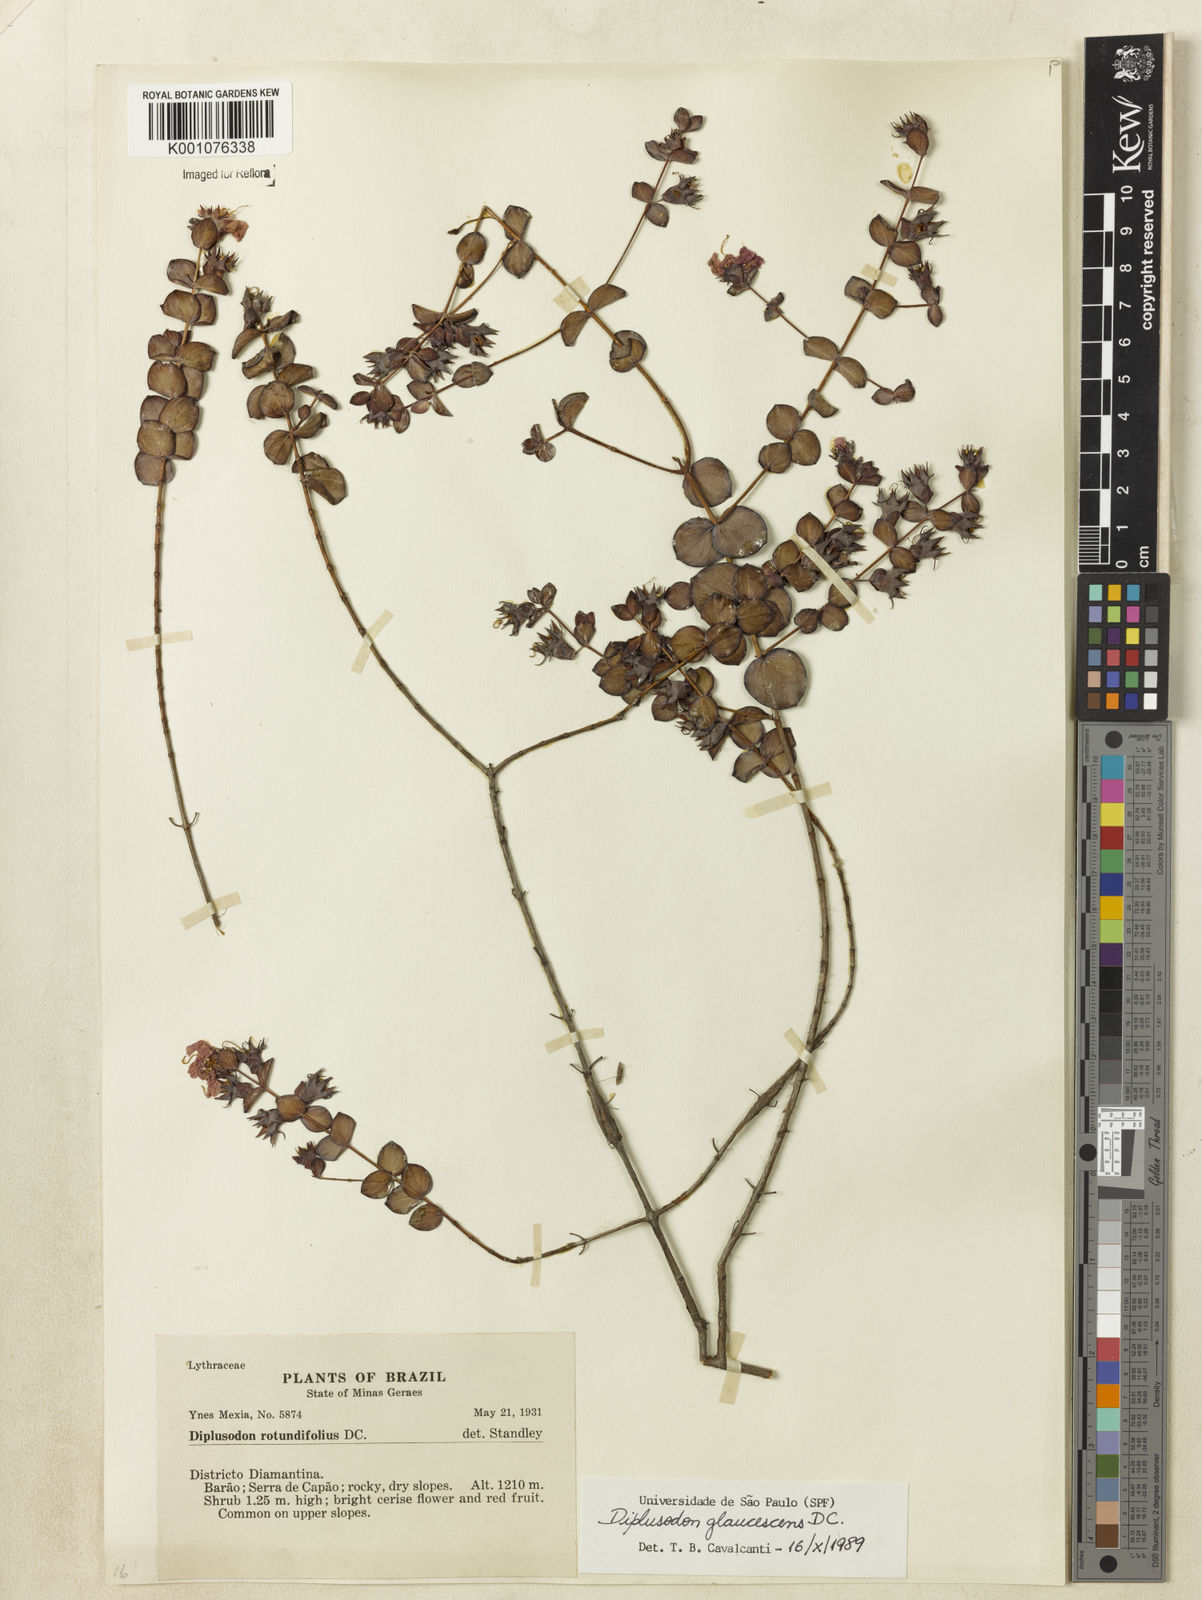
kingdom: Plantae
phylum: Tracheophyta
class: Magnoliopsida
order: Myrtales
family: Lythraceae
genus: Diplusodon
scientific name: Diplusodon glaucescens
